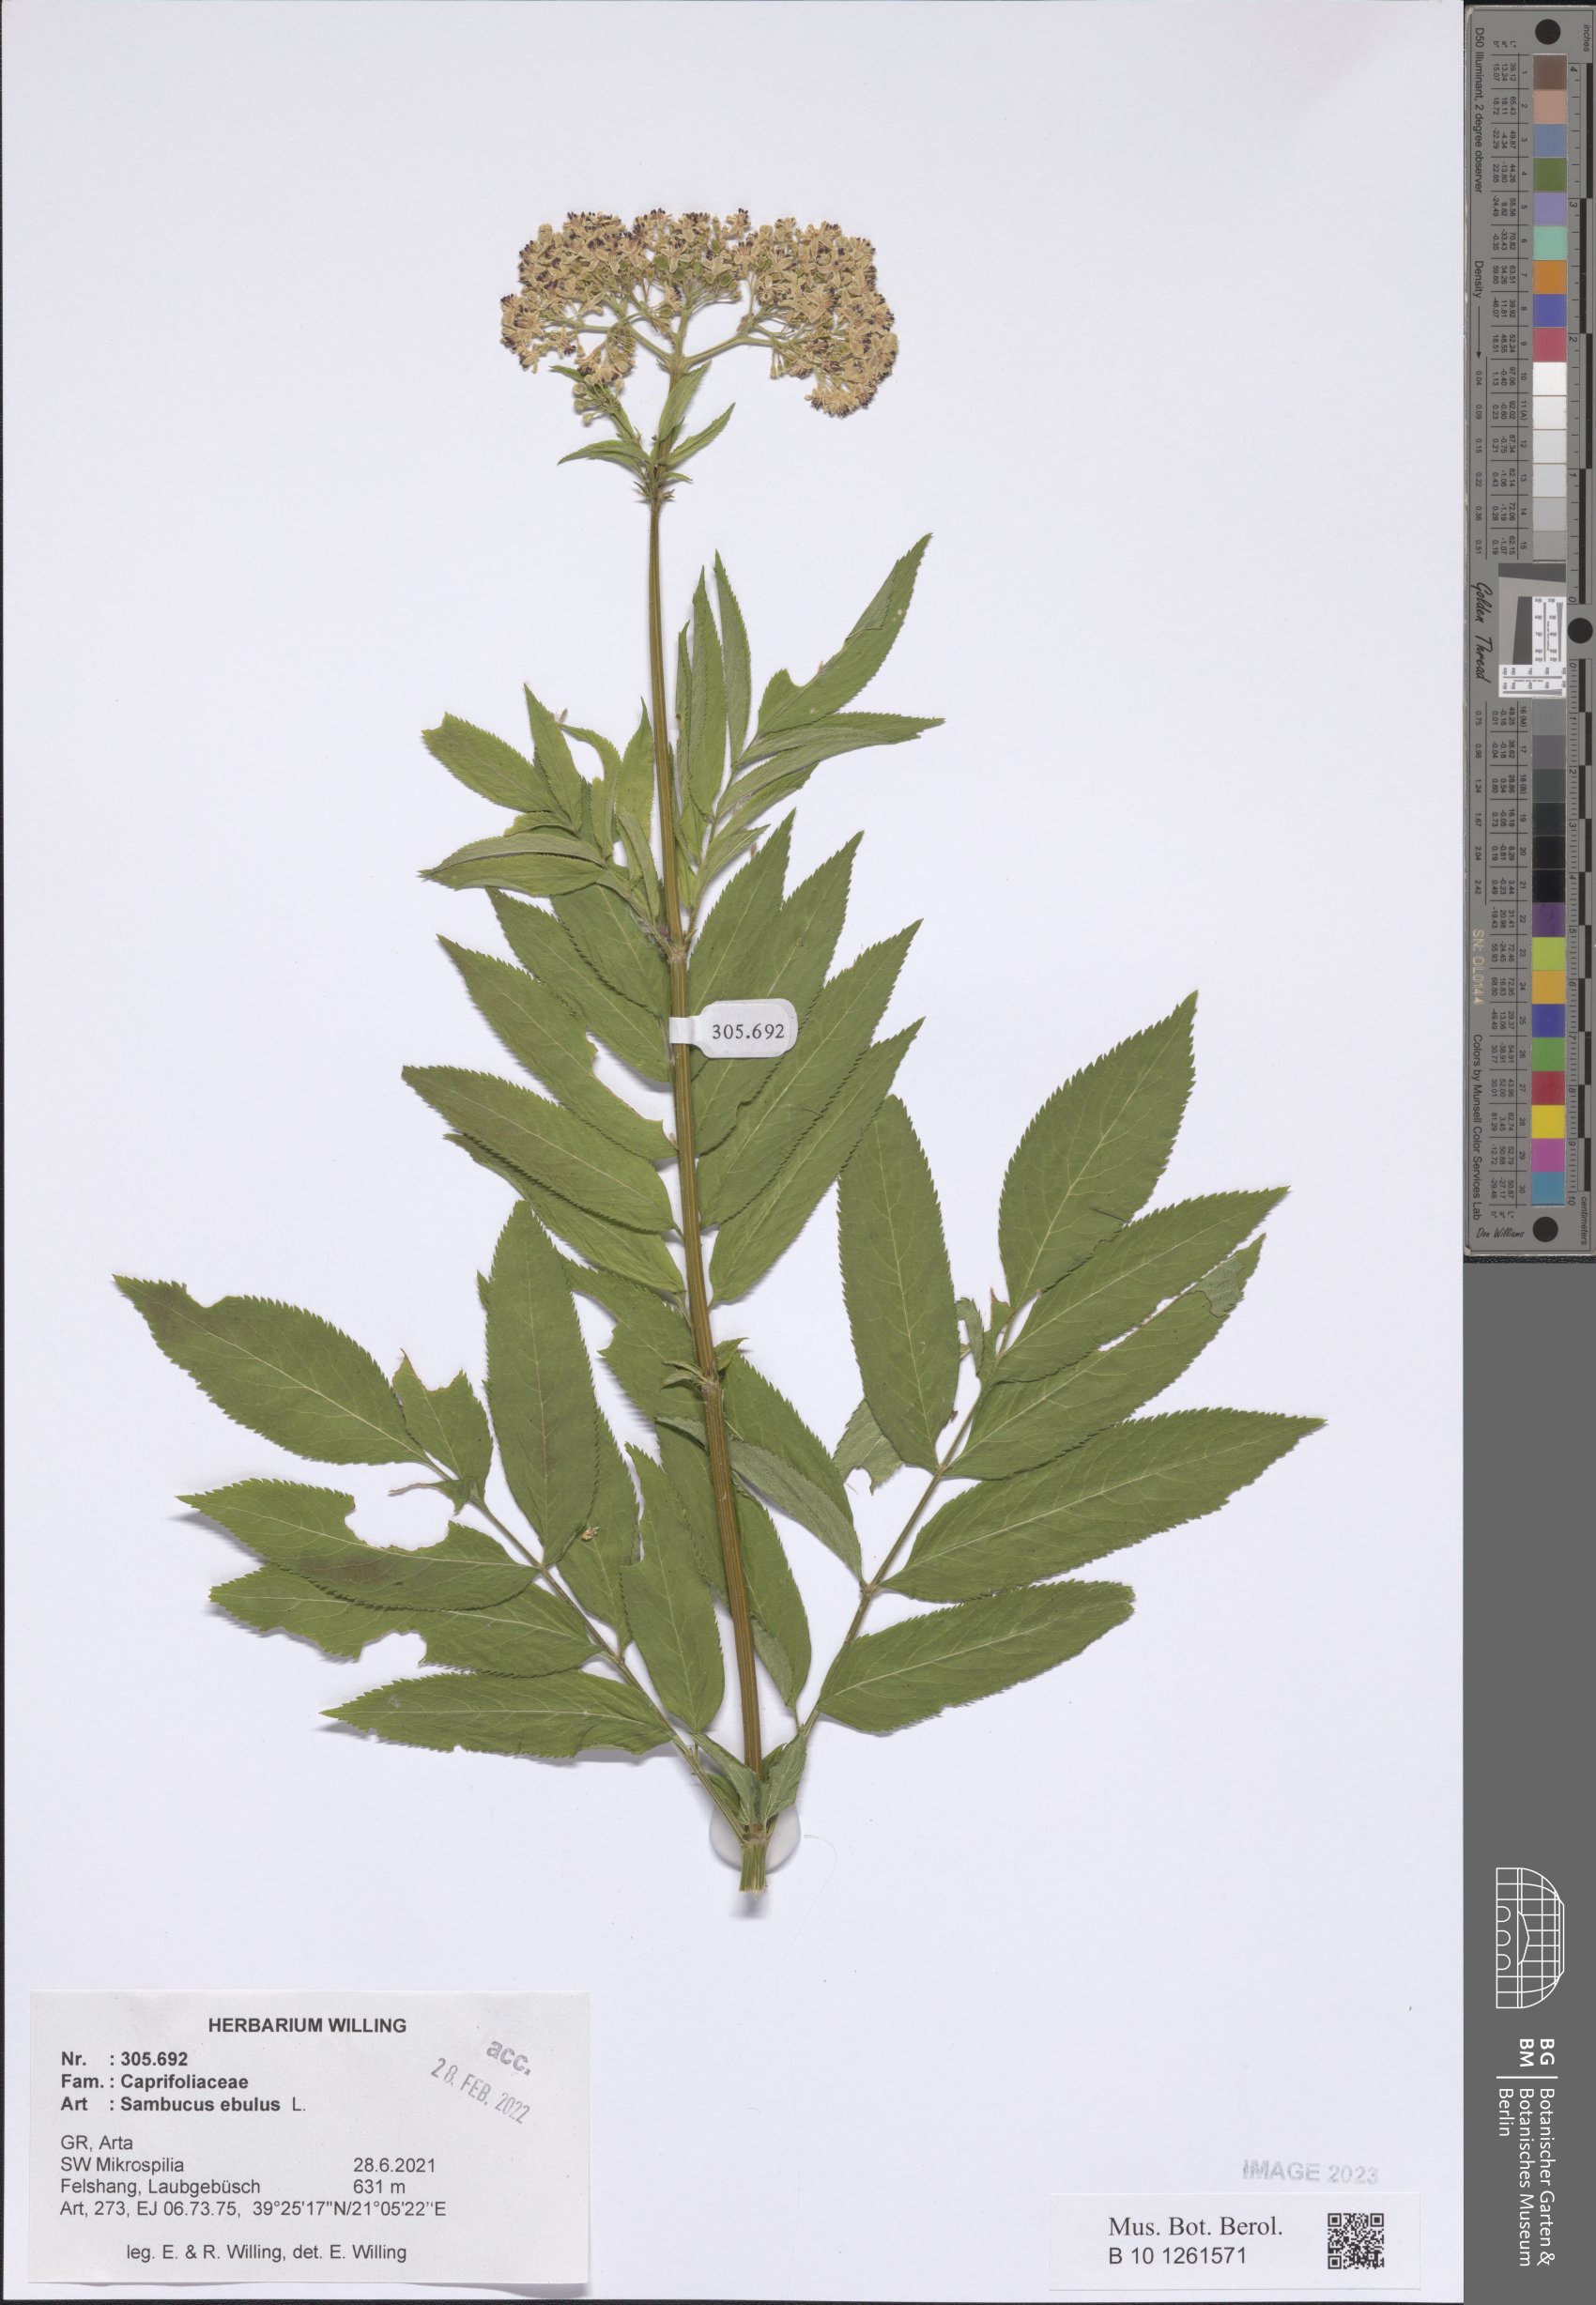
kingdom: Plantae
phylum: Tracheophyta
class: Magnoliopsida
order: Dipsacales
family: Viburnaceae
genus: Sambucus
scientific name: Sambucus ebulus
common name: Dwarf elder
